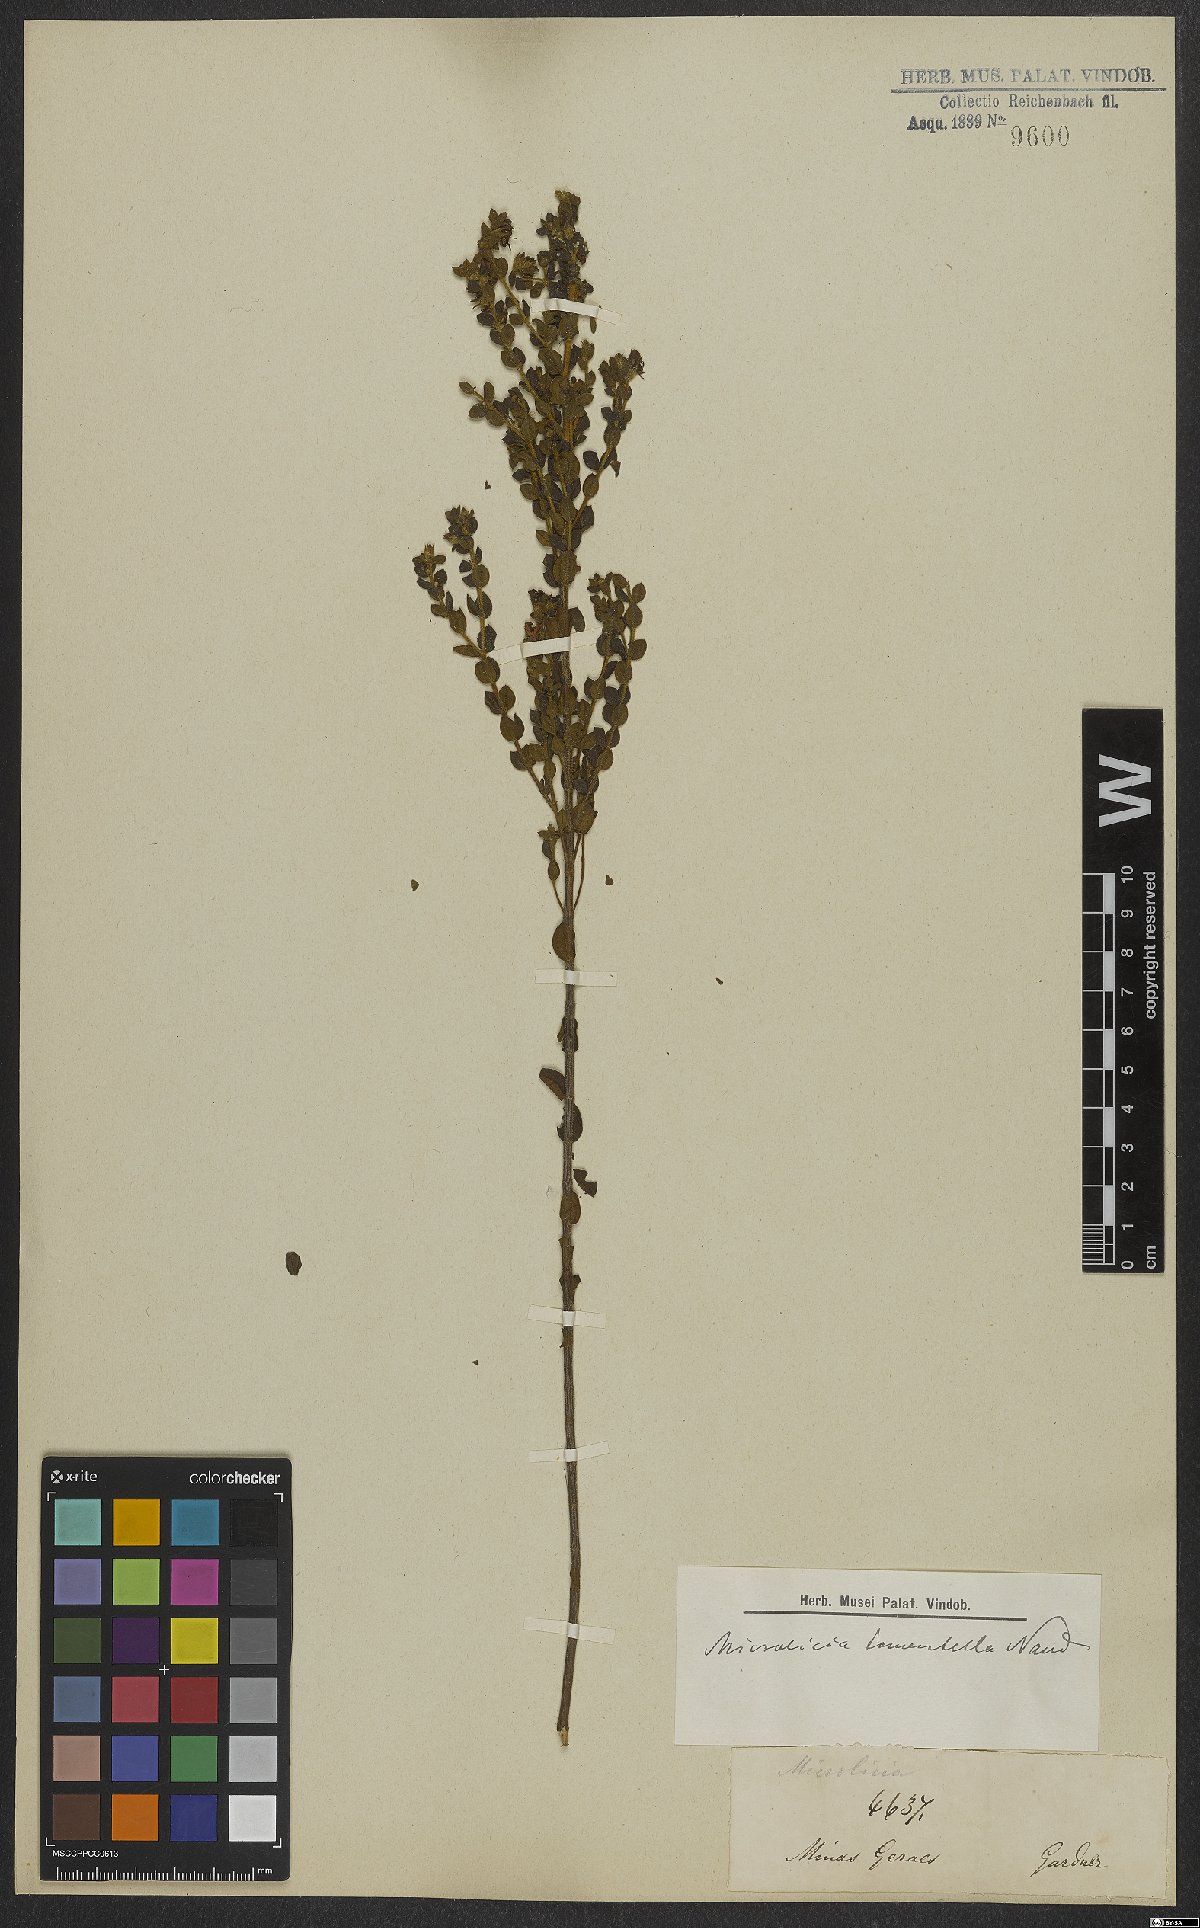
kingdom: Plantae
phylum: Tracheophyta
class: Magnoliopsida
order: Myrtales
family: Melastomataceae
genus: Microlicia
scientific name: Microlicia tomentella
